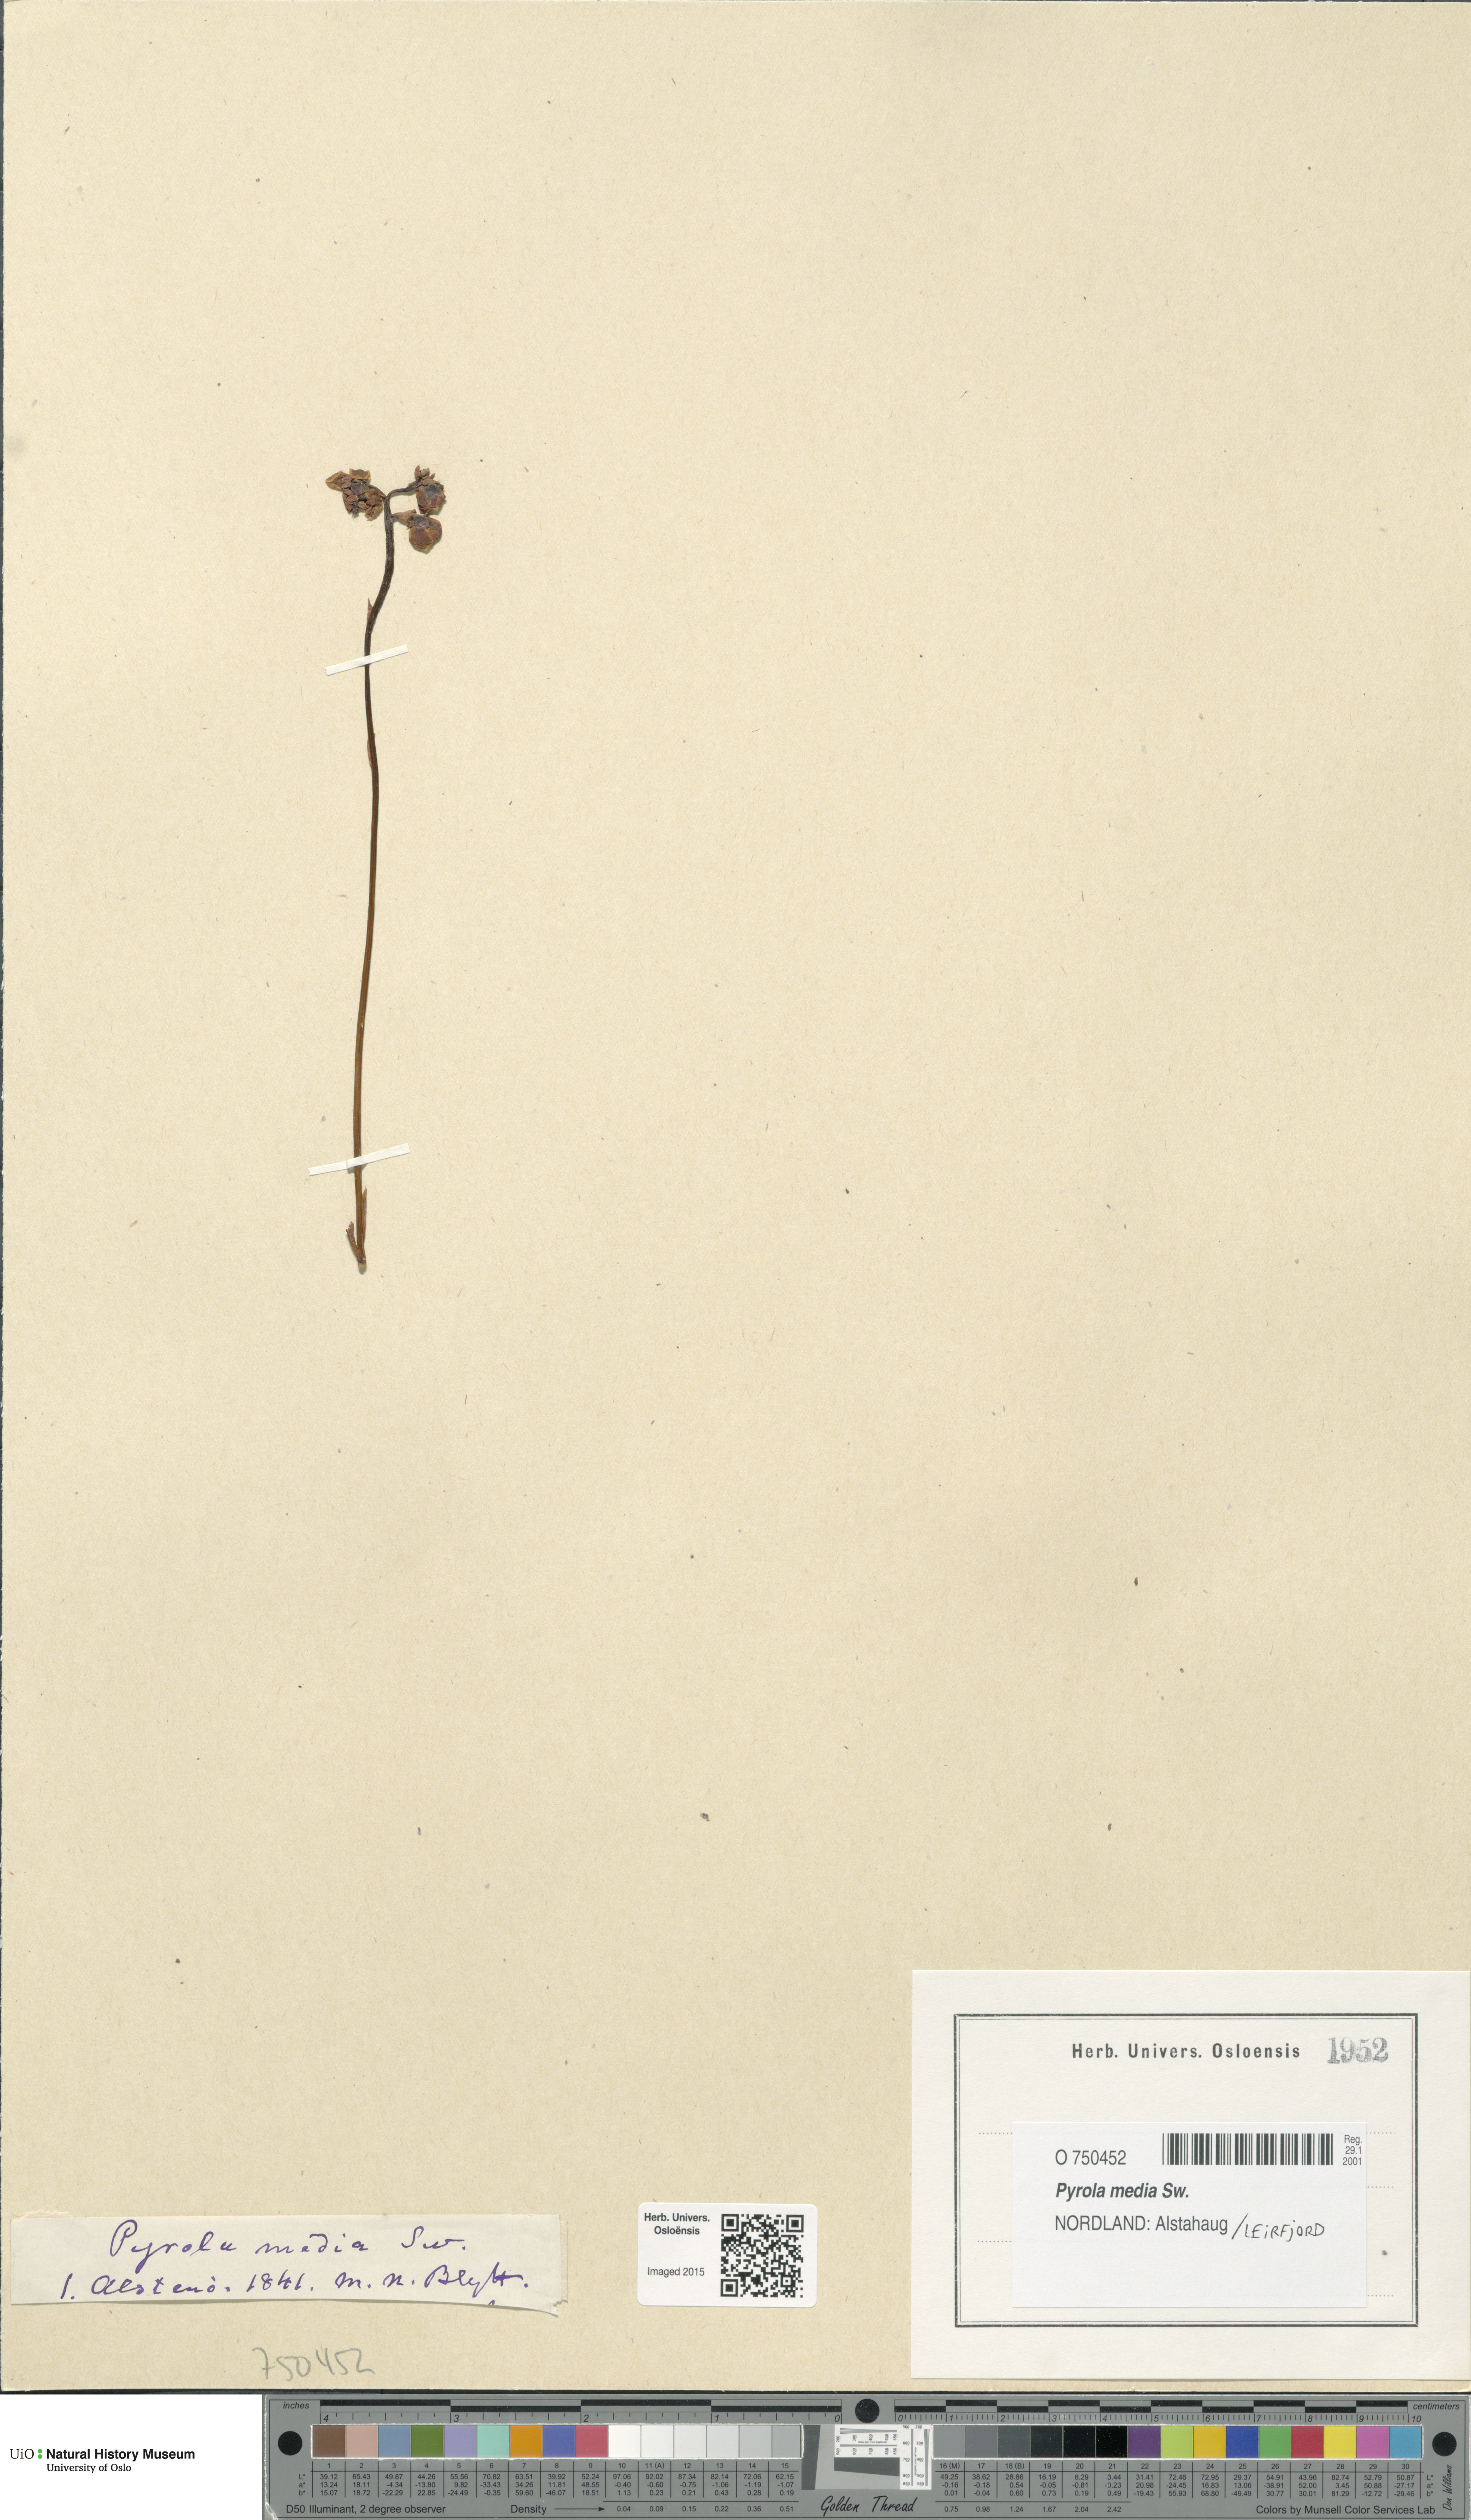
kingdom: Plantae
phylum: Tracheophyta
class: Magnoliopsida
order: Ericales
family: Ericaceae
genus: Pyrola
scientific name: Pyrola media
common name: Intermediate wintergreen
